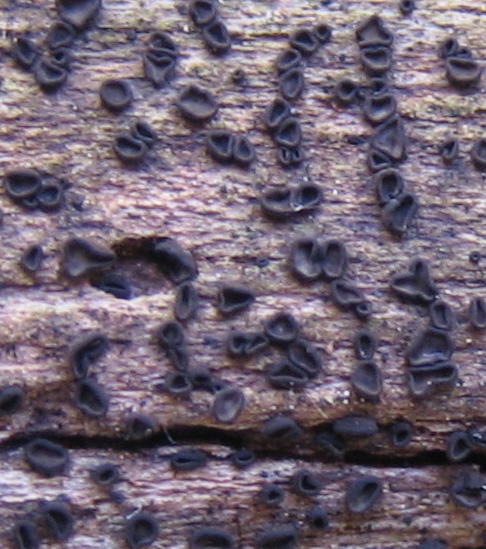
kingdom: Fungi
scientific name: Fungi
